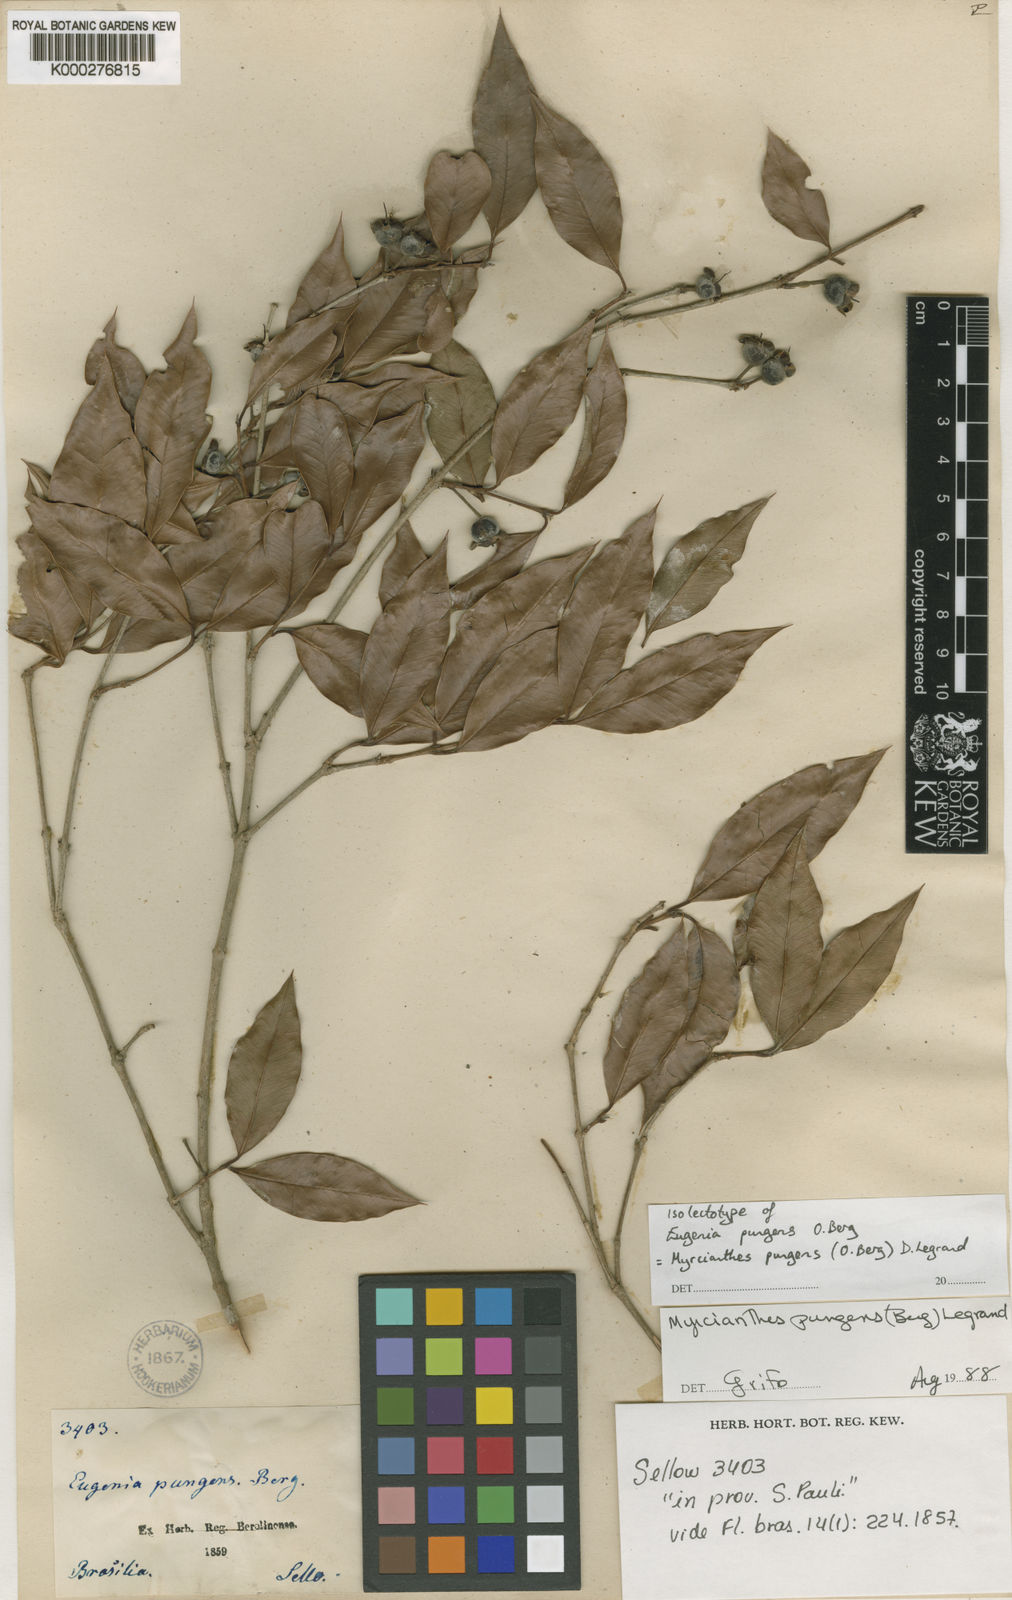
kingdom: Plantae
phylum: Tracheophyta
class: Magnoliopsida
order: Myrtales
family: Myrtaceae
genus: Myrcianthes
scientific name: Myrcianthes pungens
